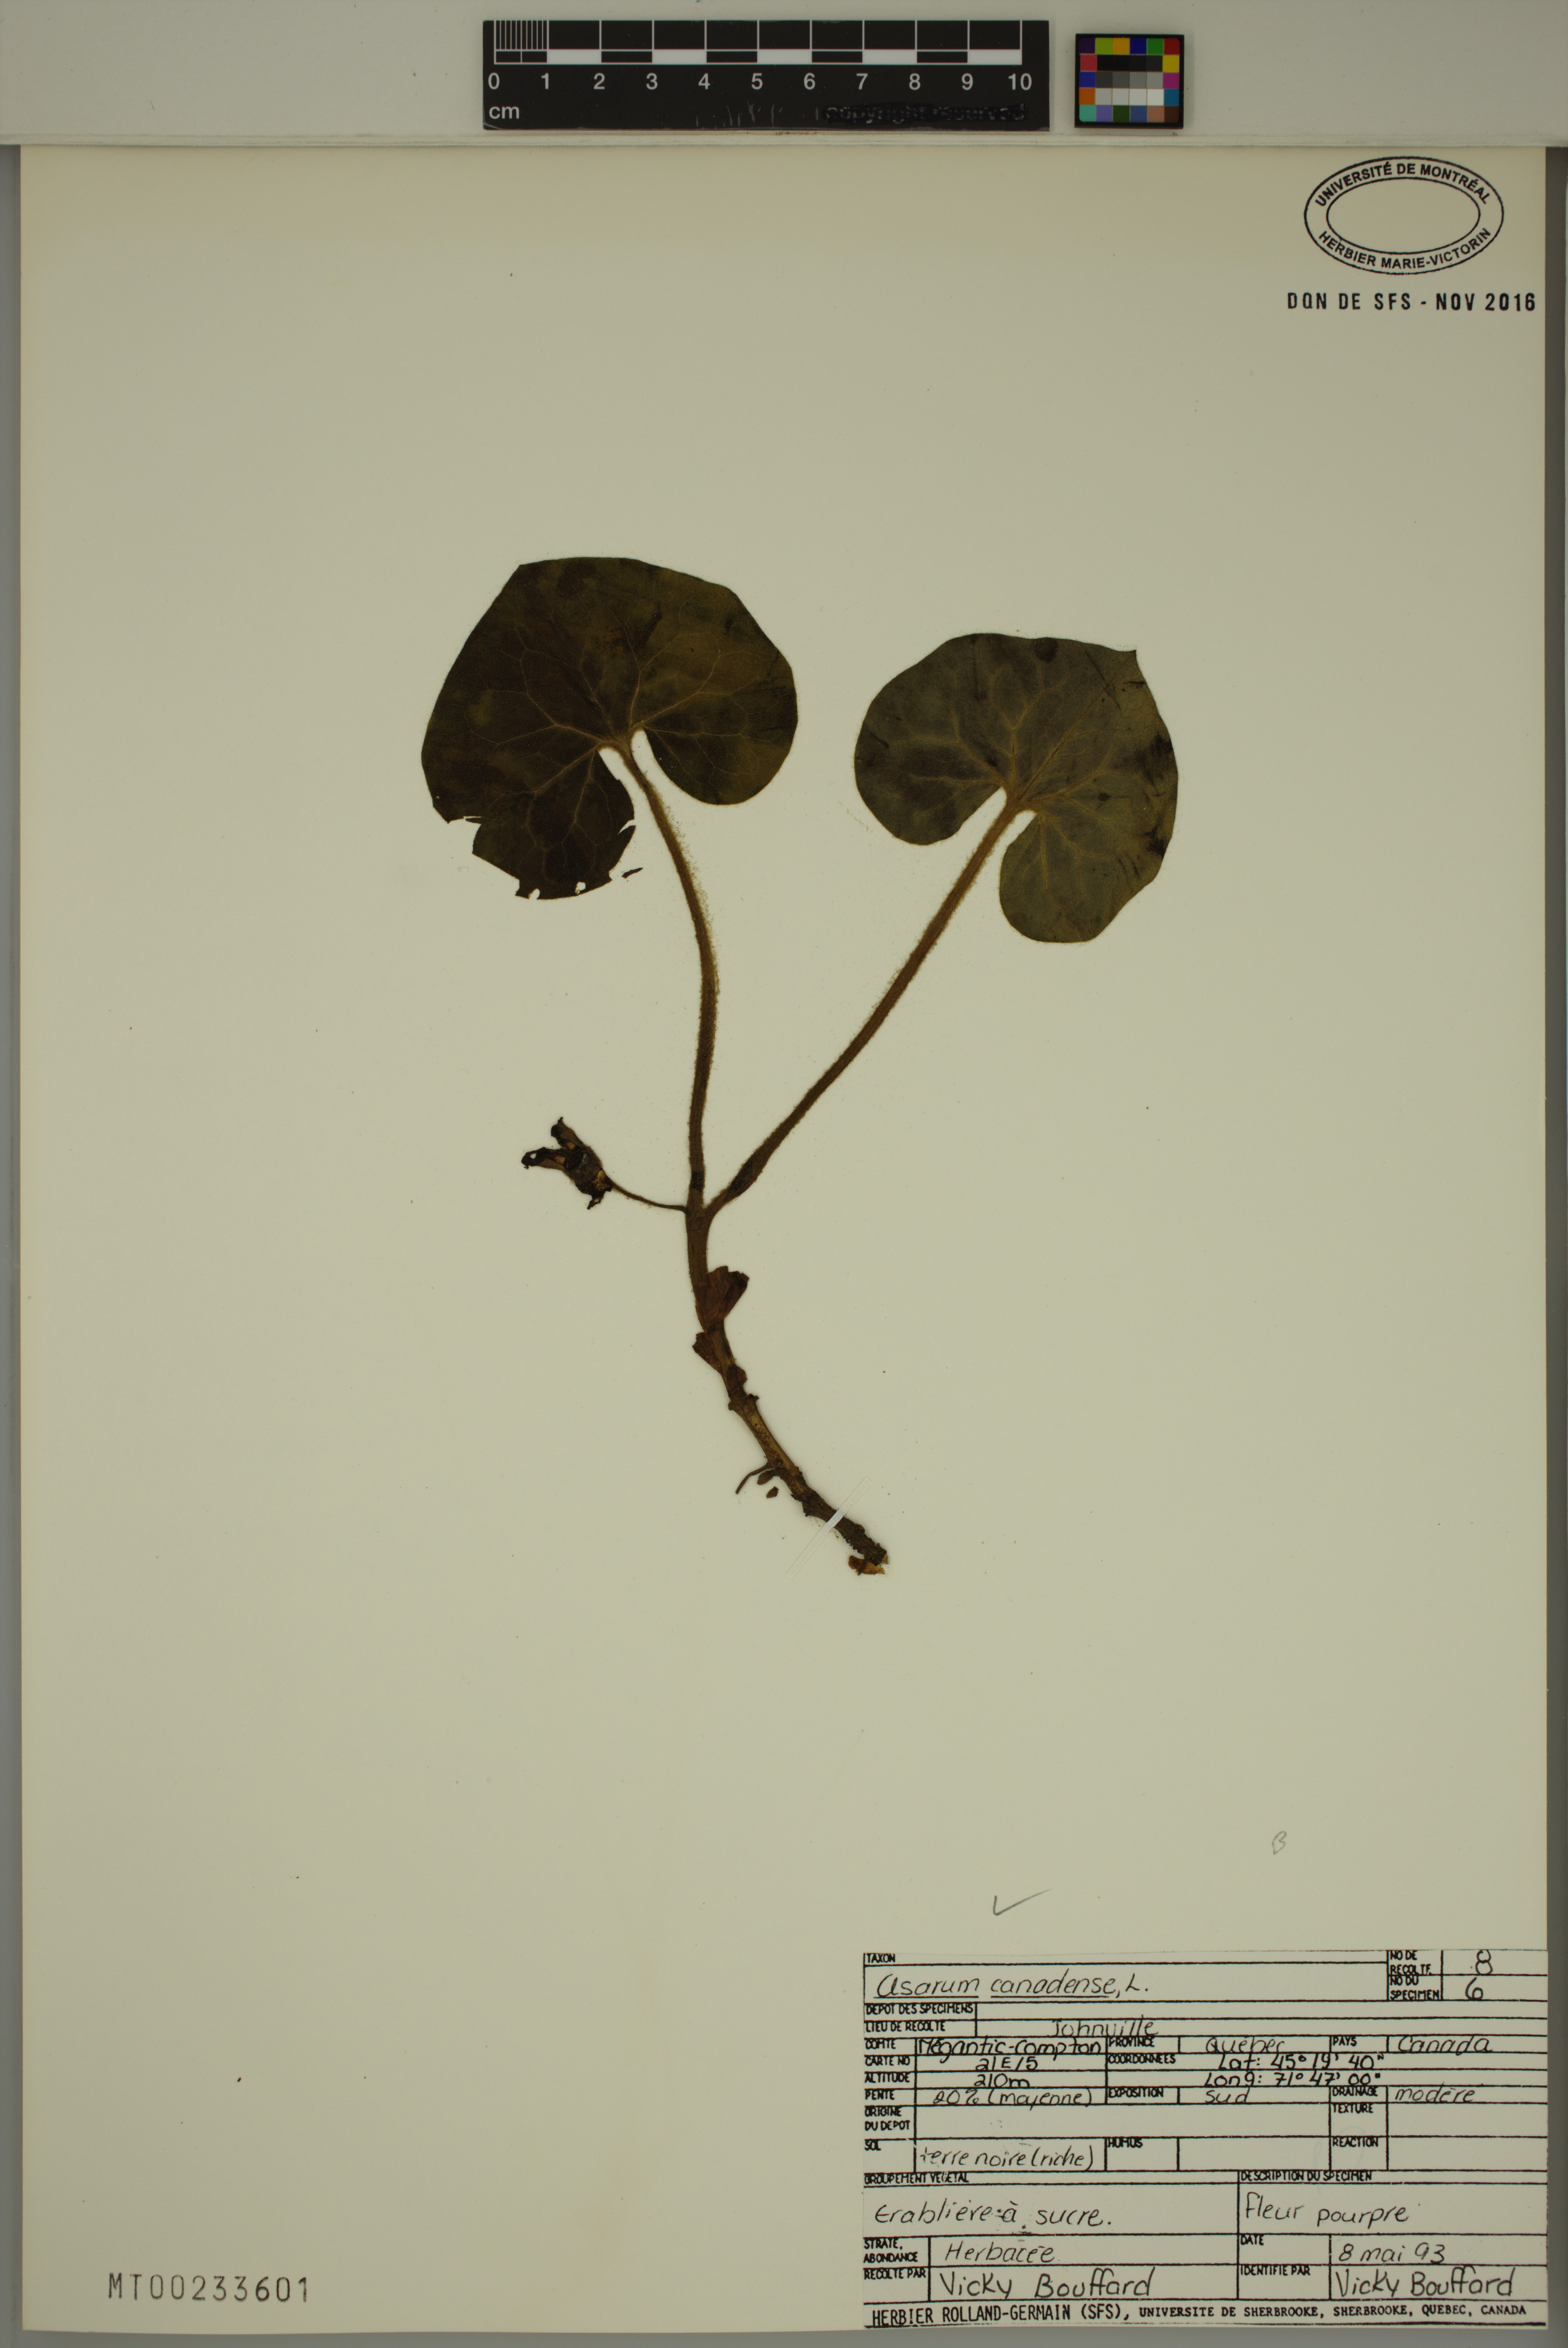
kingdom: Plantae
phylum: Tracheophyta
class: Magnoliopsida
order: Piperales
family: Aristolochiaceae
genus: Asarum
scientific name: Asarum canadense
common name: Wild ginger
